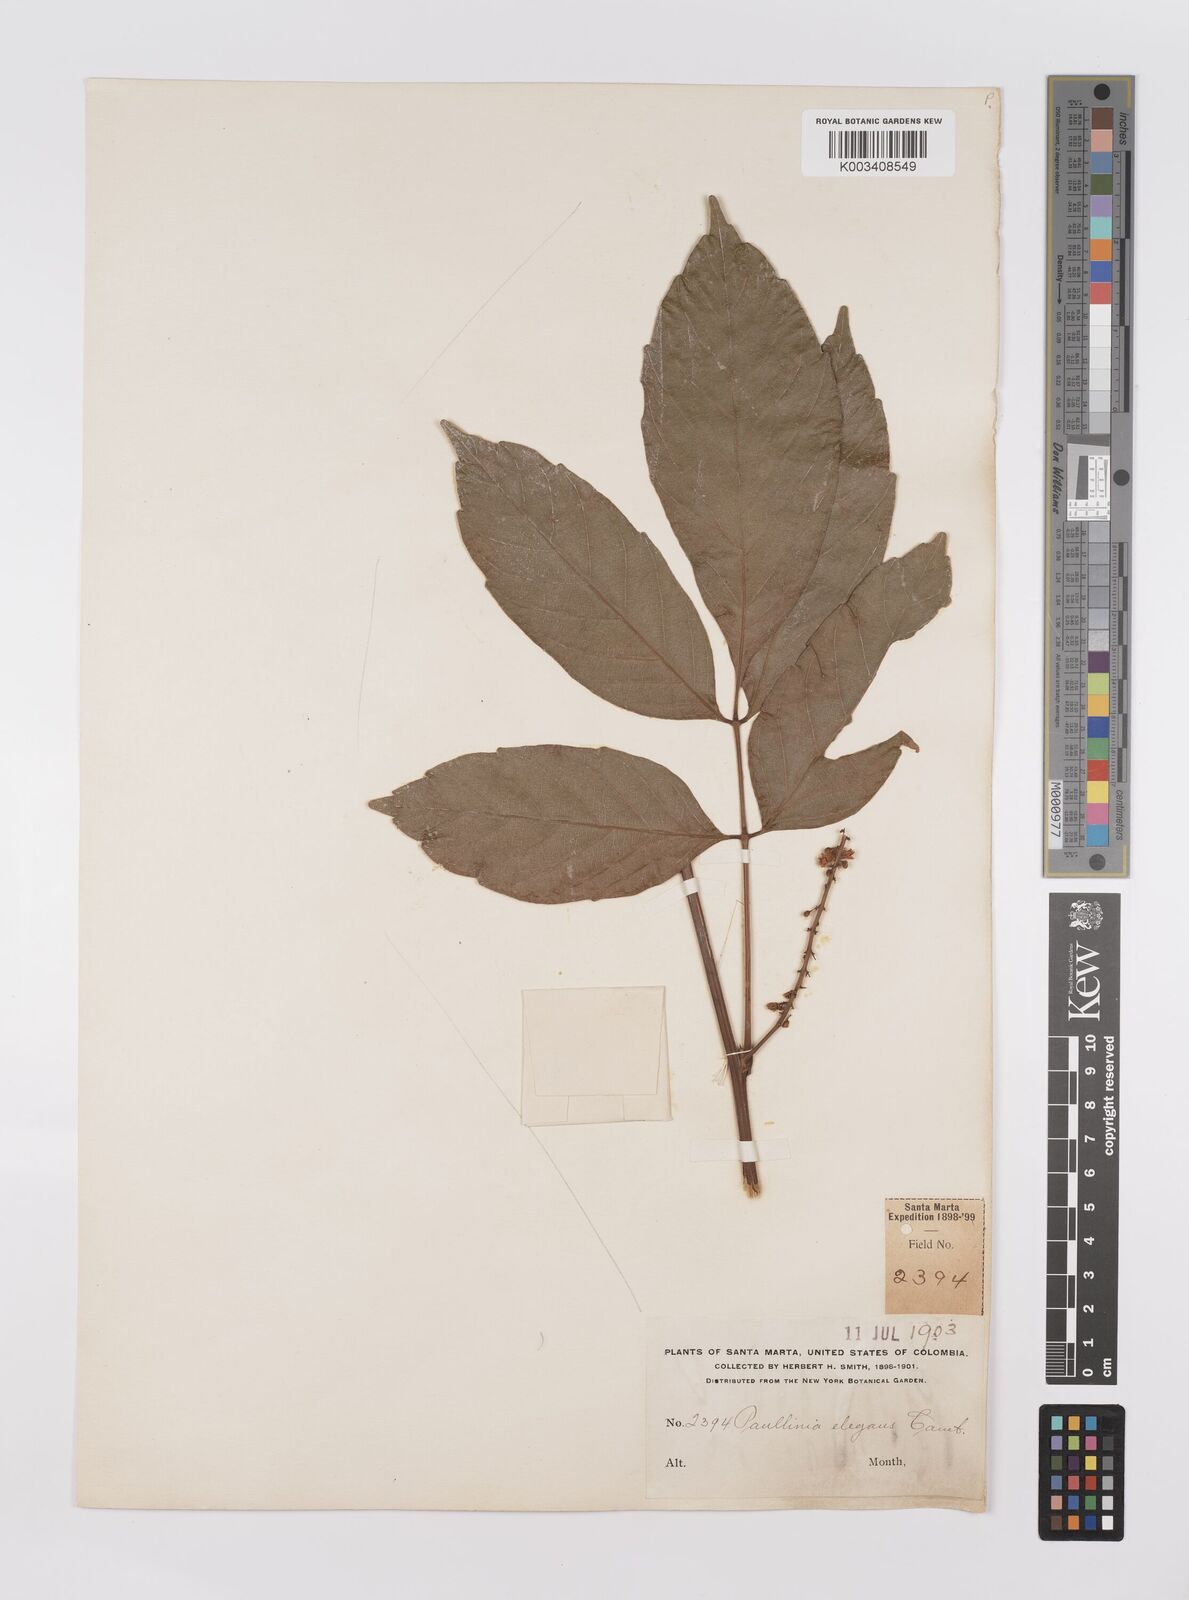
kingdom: Plantae
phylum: Tracheophyta
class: Magnoliopsida
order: Sapindales
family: Sapindaceae
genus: Paullinia
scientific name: Paullinia elegans
